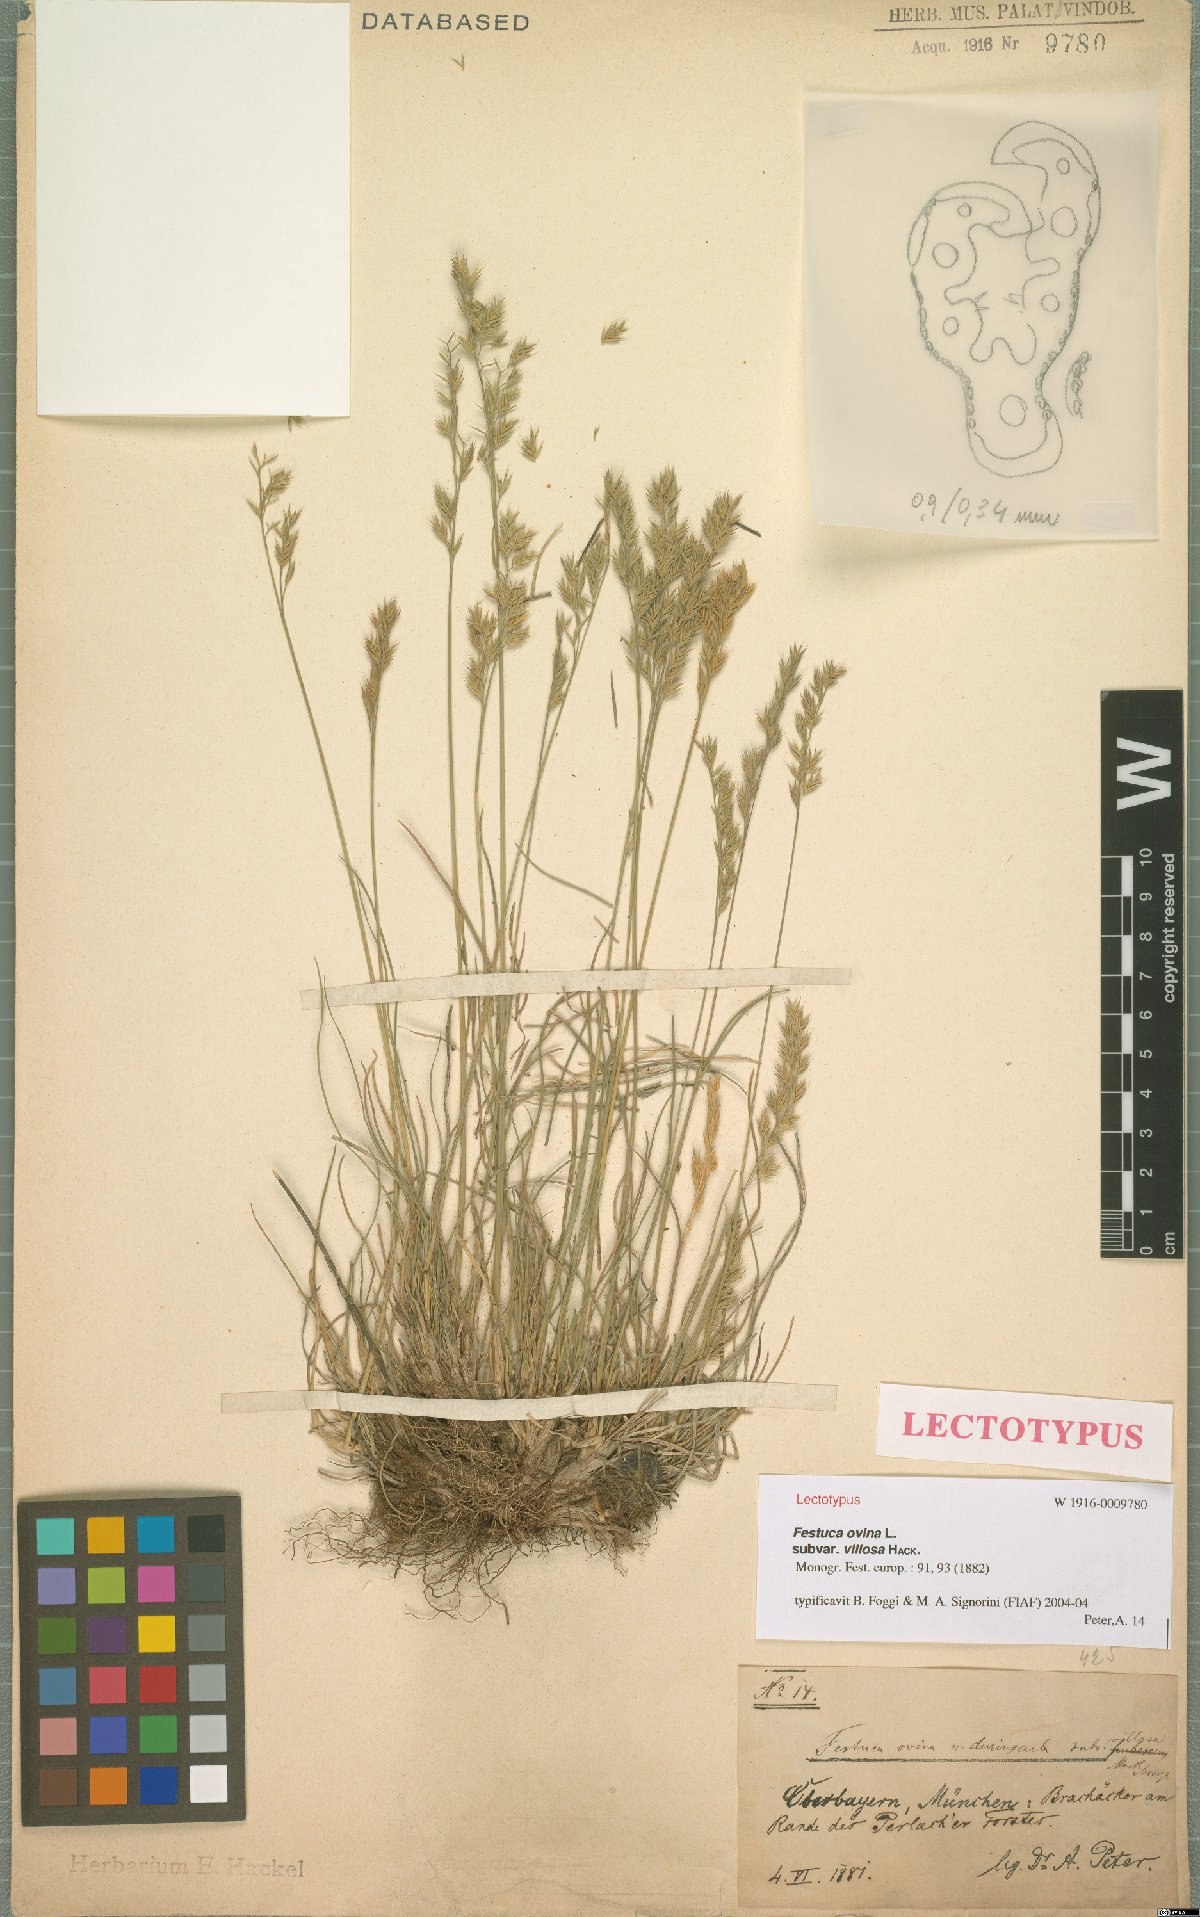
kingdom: Plantae
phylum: Tracheophyta
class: Liliopsida
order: Poales
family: Poaceae
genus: Festuca
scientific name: Festuca longifolia
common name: Blue fescue
